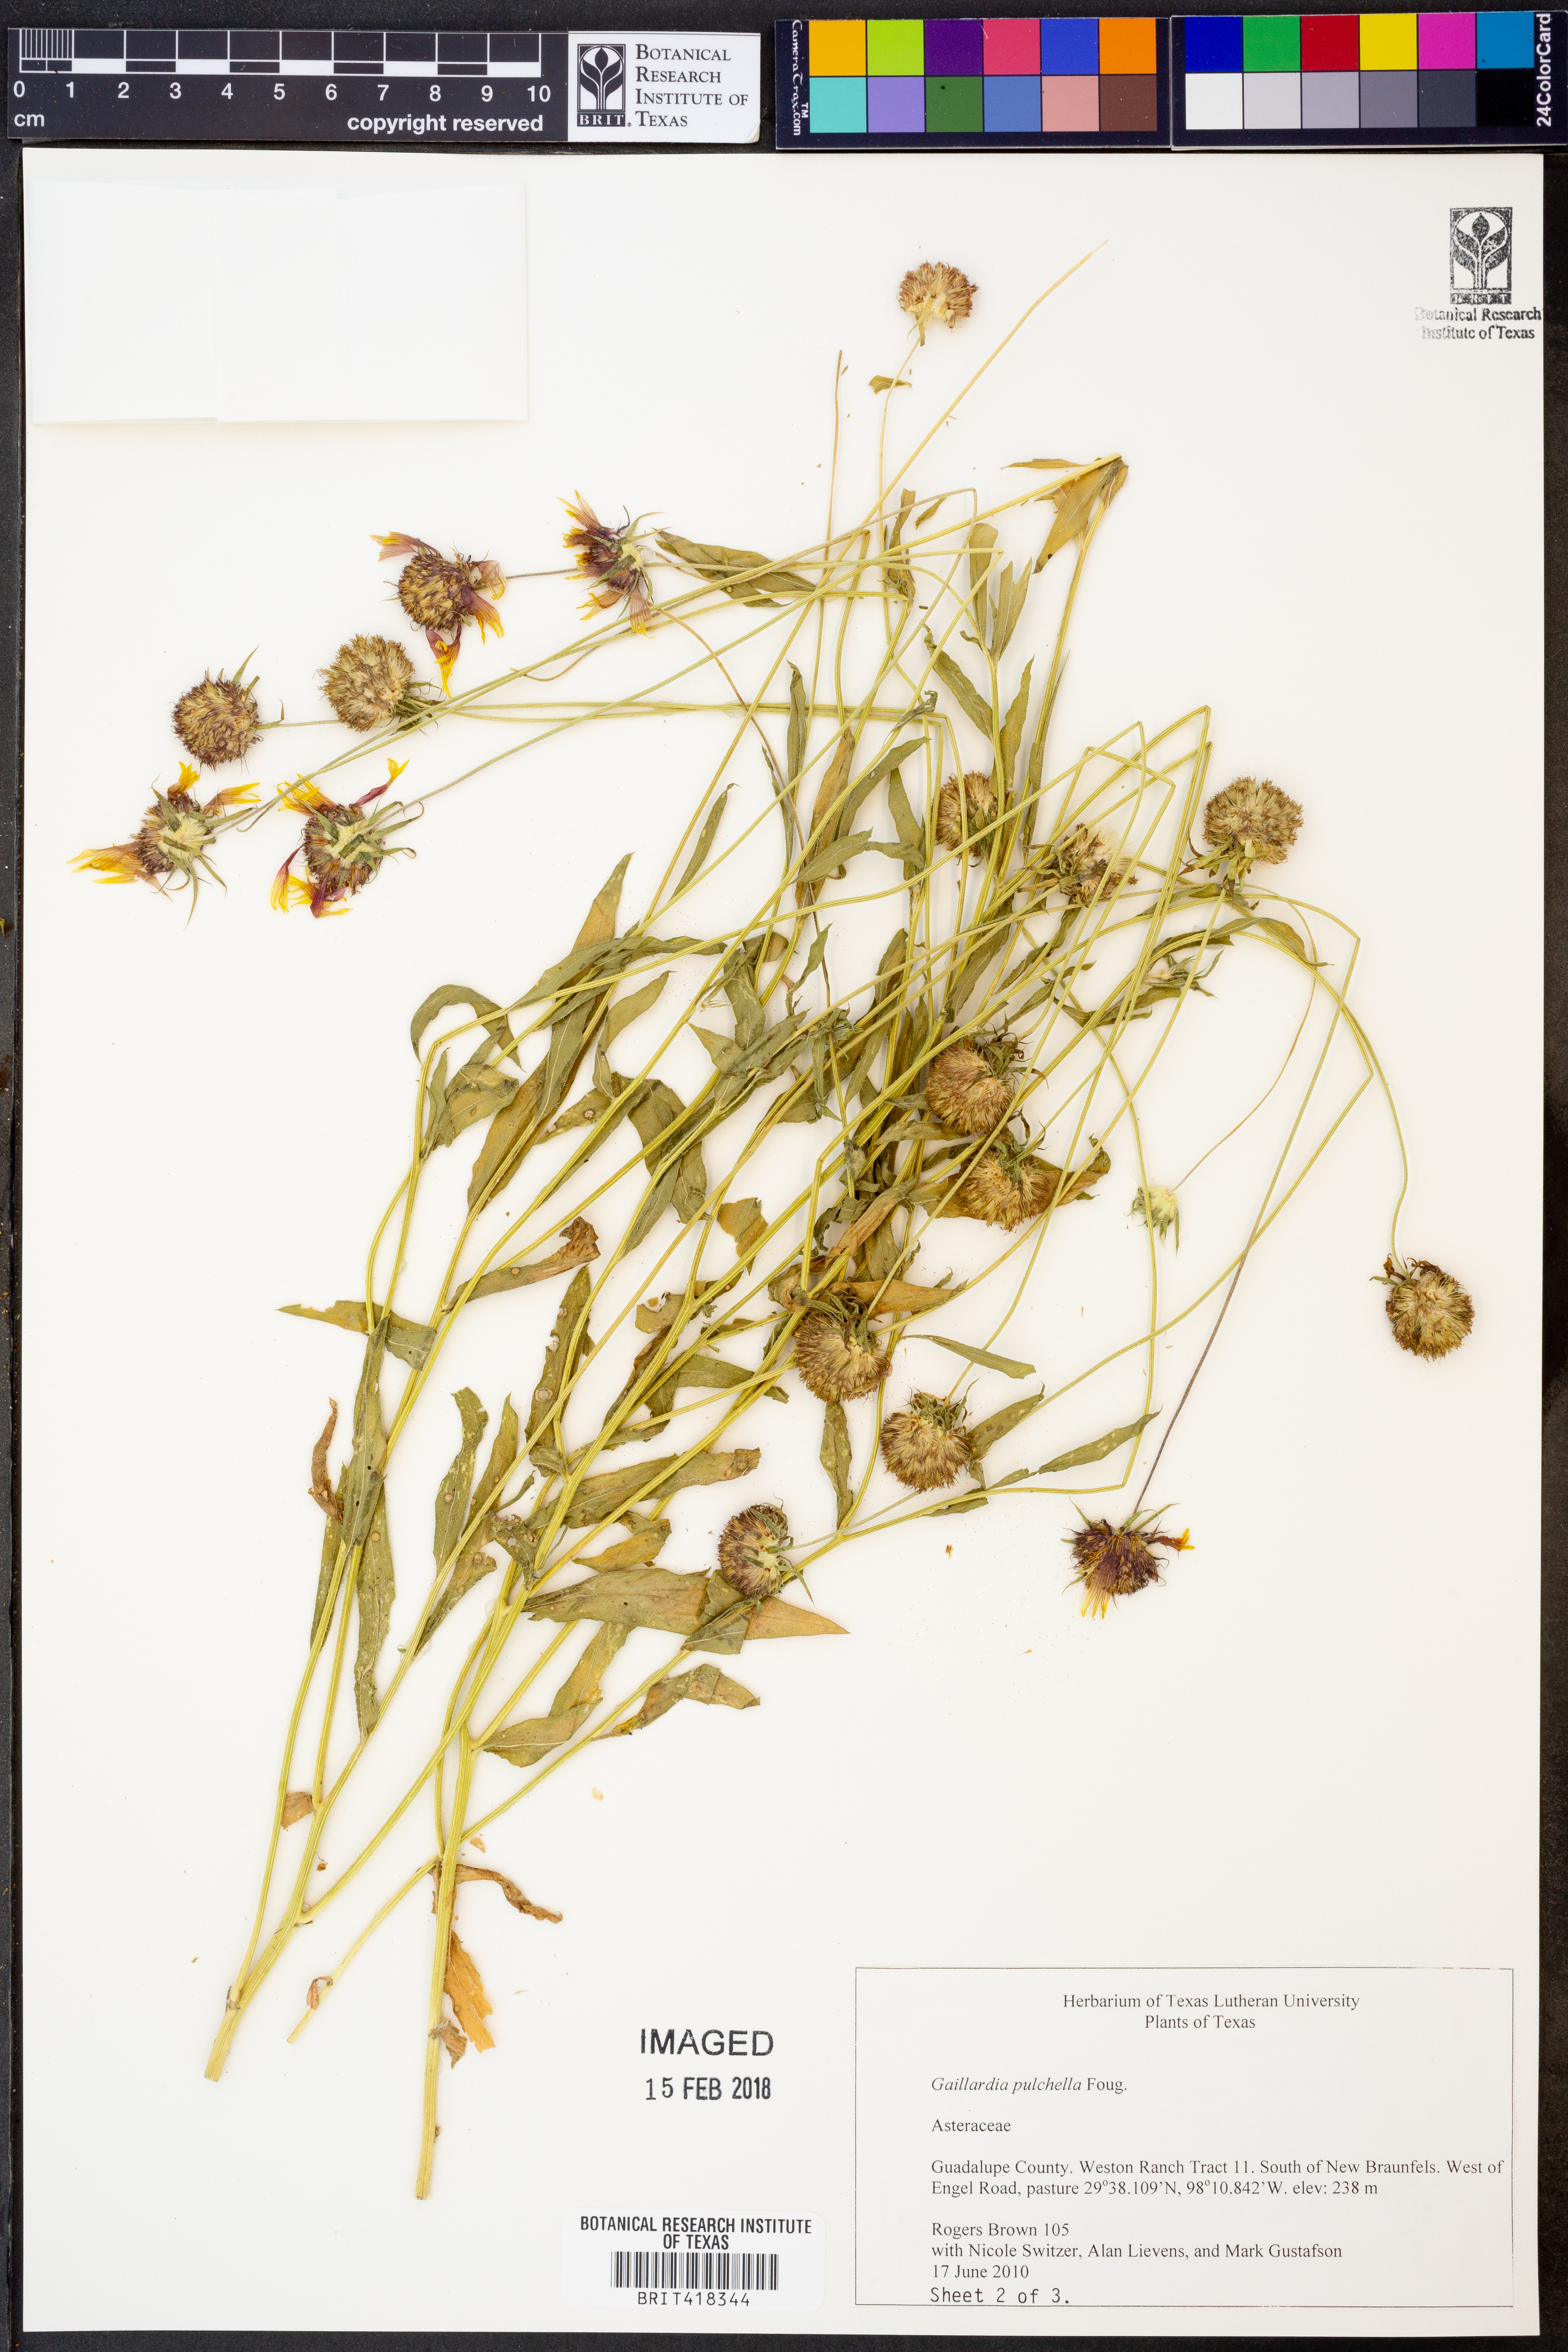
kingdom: Plantae
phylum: Tracheophyta
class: Magnoliopsida
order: Asterales
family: Asteraceae
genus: Gaillardia
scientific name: Gaillardia pulchella
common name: Firewheel
